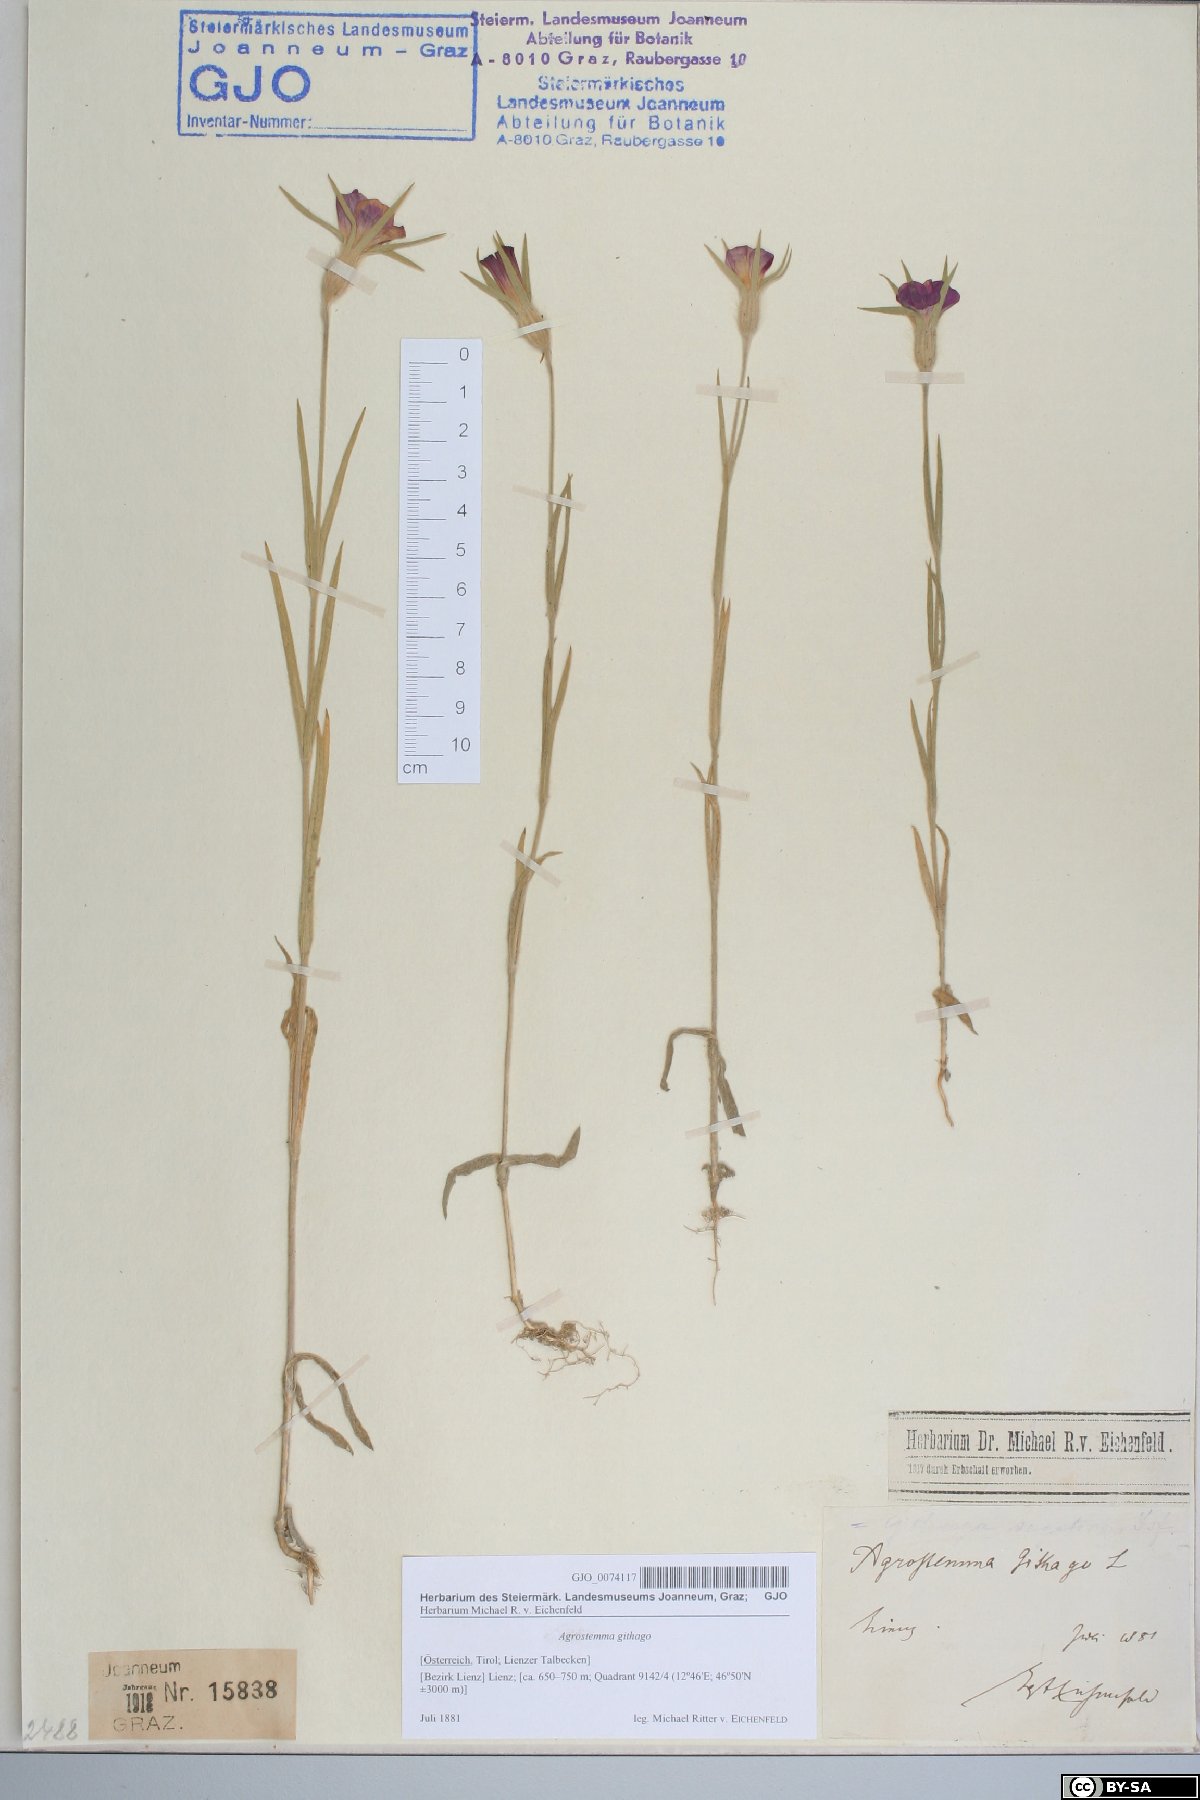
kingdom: Plantae
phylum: Tracheophyta
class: Magnoliopsida
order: Caryophyllales
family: Caryophyllaceae
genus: Agrostemma
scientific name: Agrostemma githago
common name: Common corncockle
